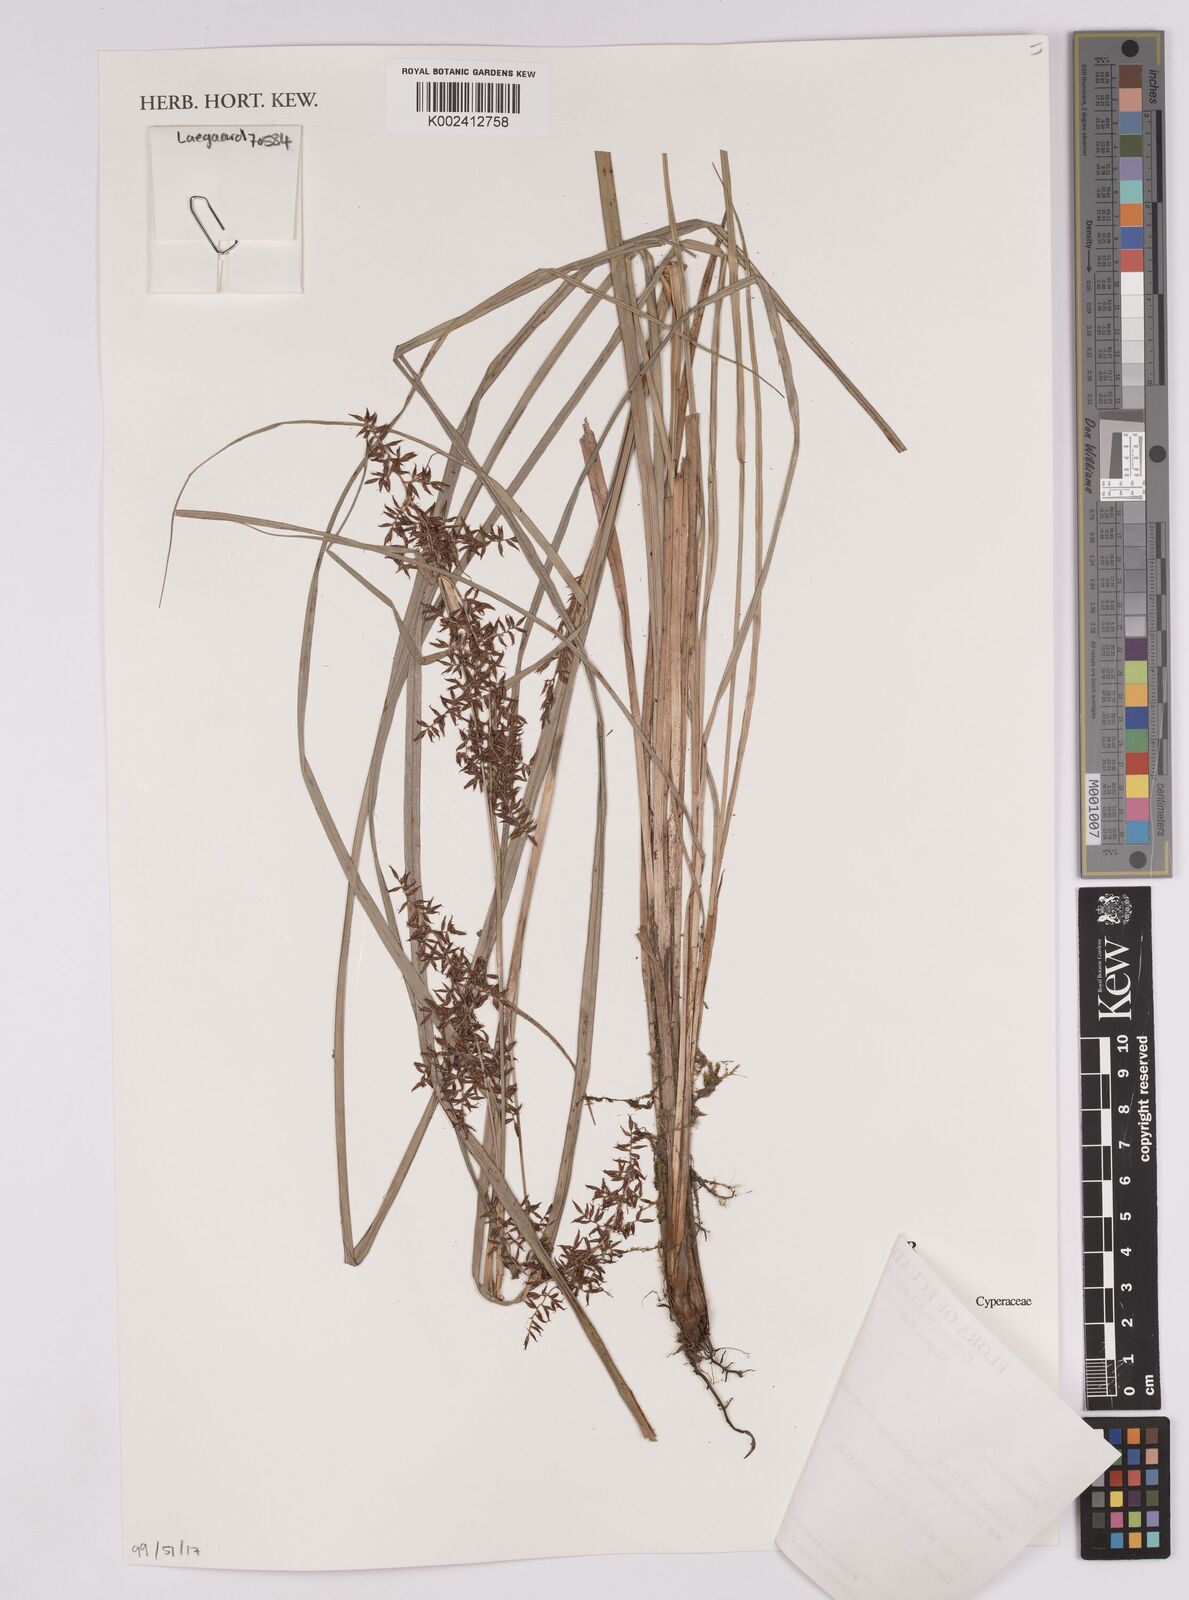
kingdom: Plantae
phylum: Tracheophyta
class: Liliopsida
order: Poales
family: Cyperaceae
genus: Rhynchospora
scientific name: Rhynchospora
